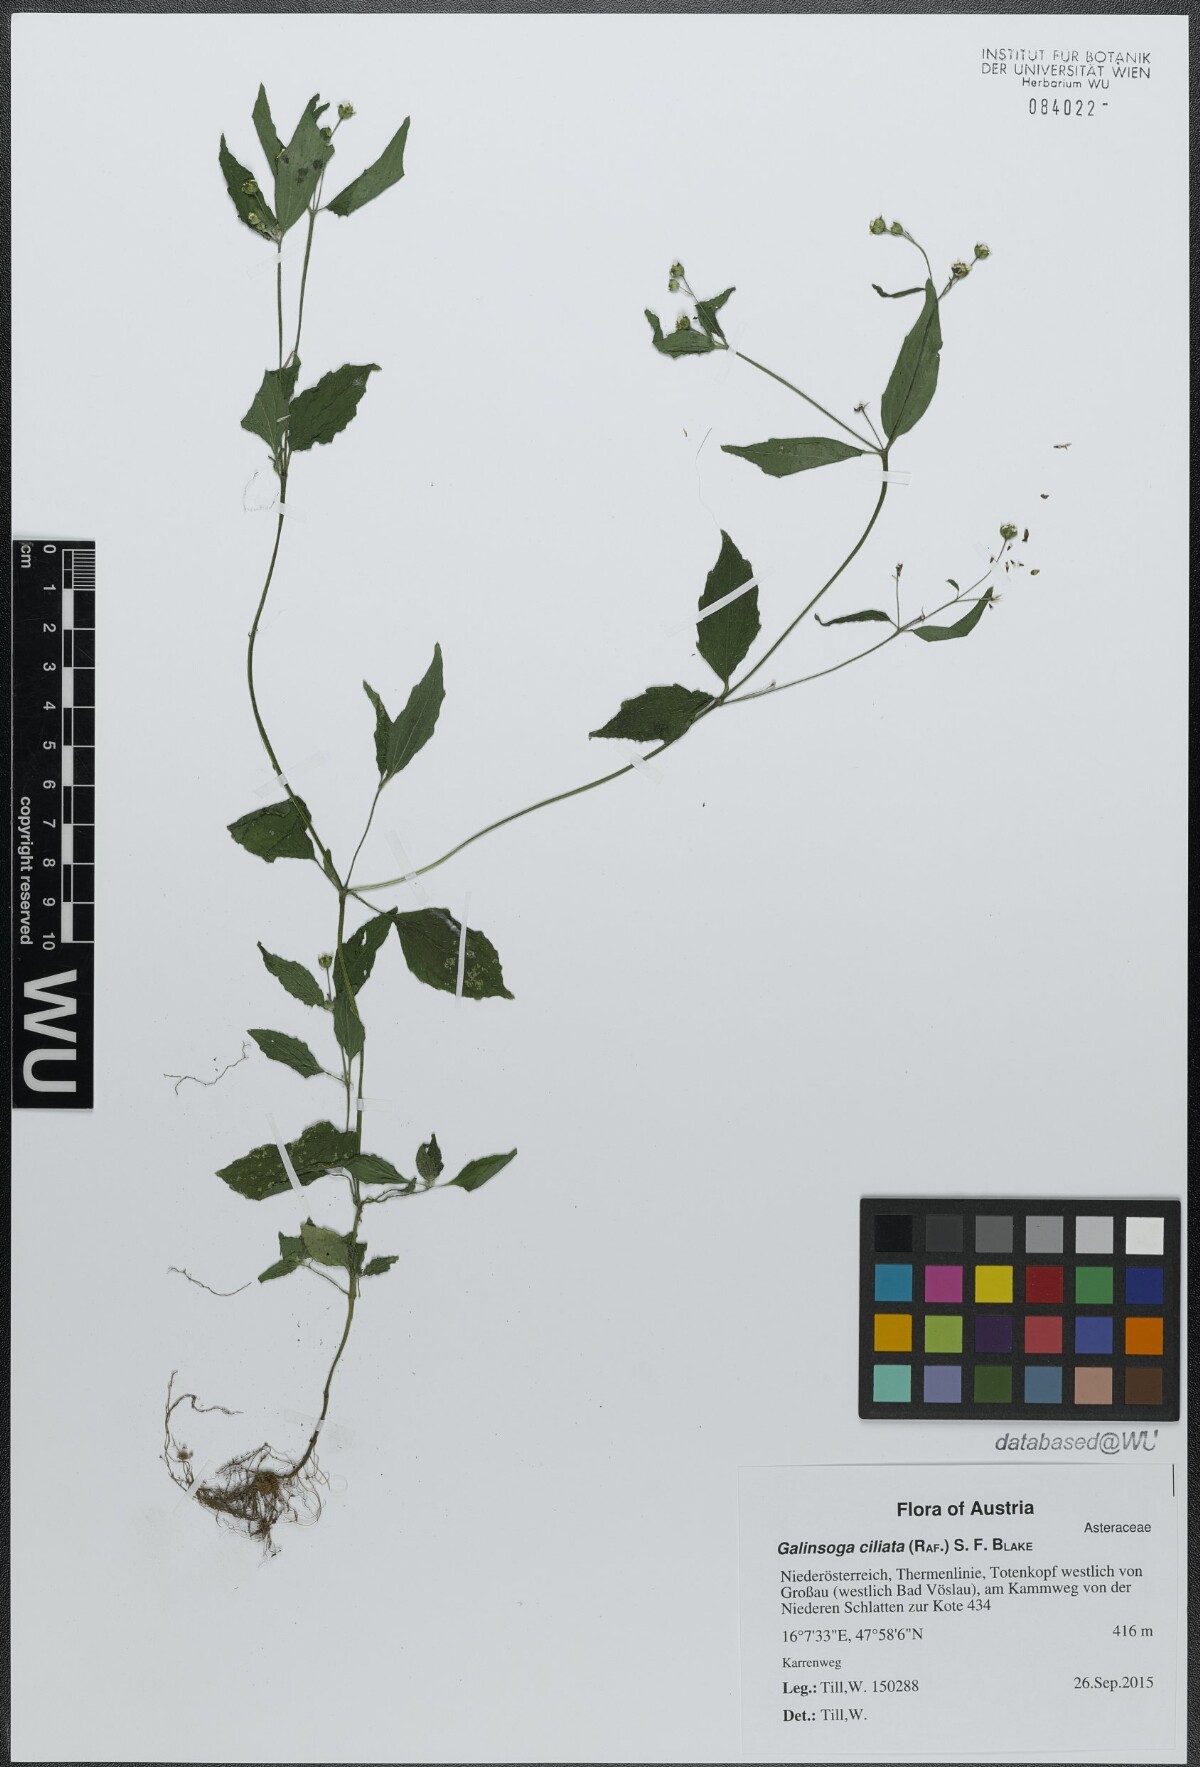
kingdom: Plantae
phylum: Tracheophyta
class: Magnoliopsida
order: Asterales
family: Asteraceae
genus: Galinsoga
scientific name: Galinsoga quadriradiata
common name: Shaggy soldier
